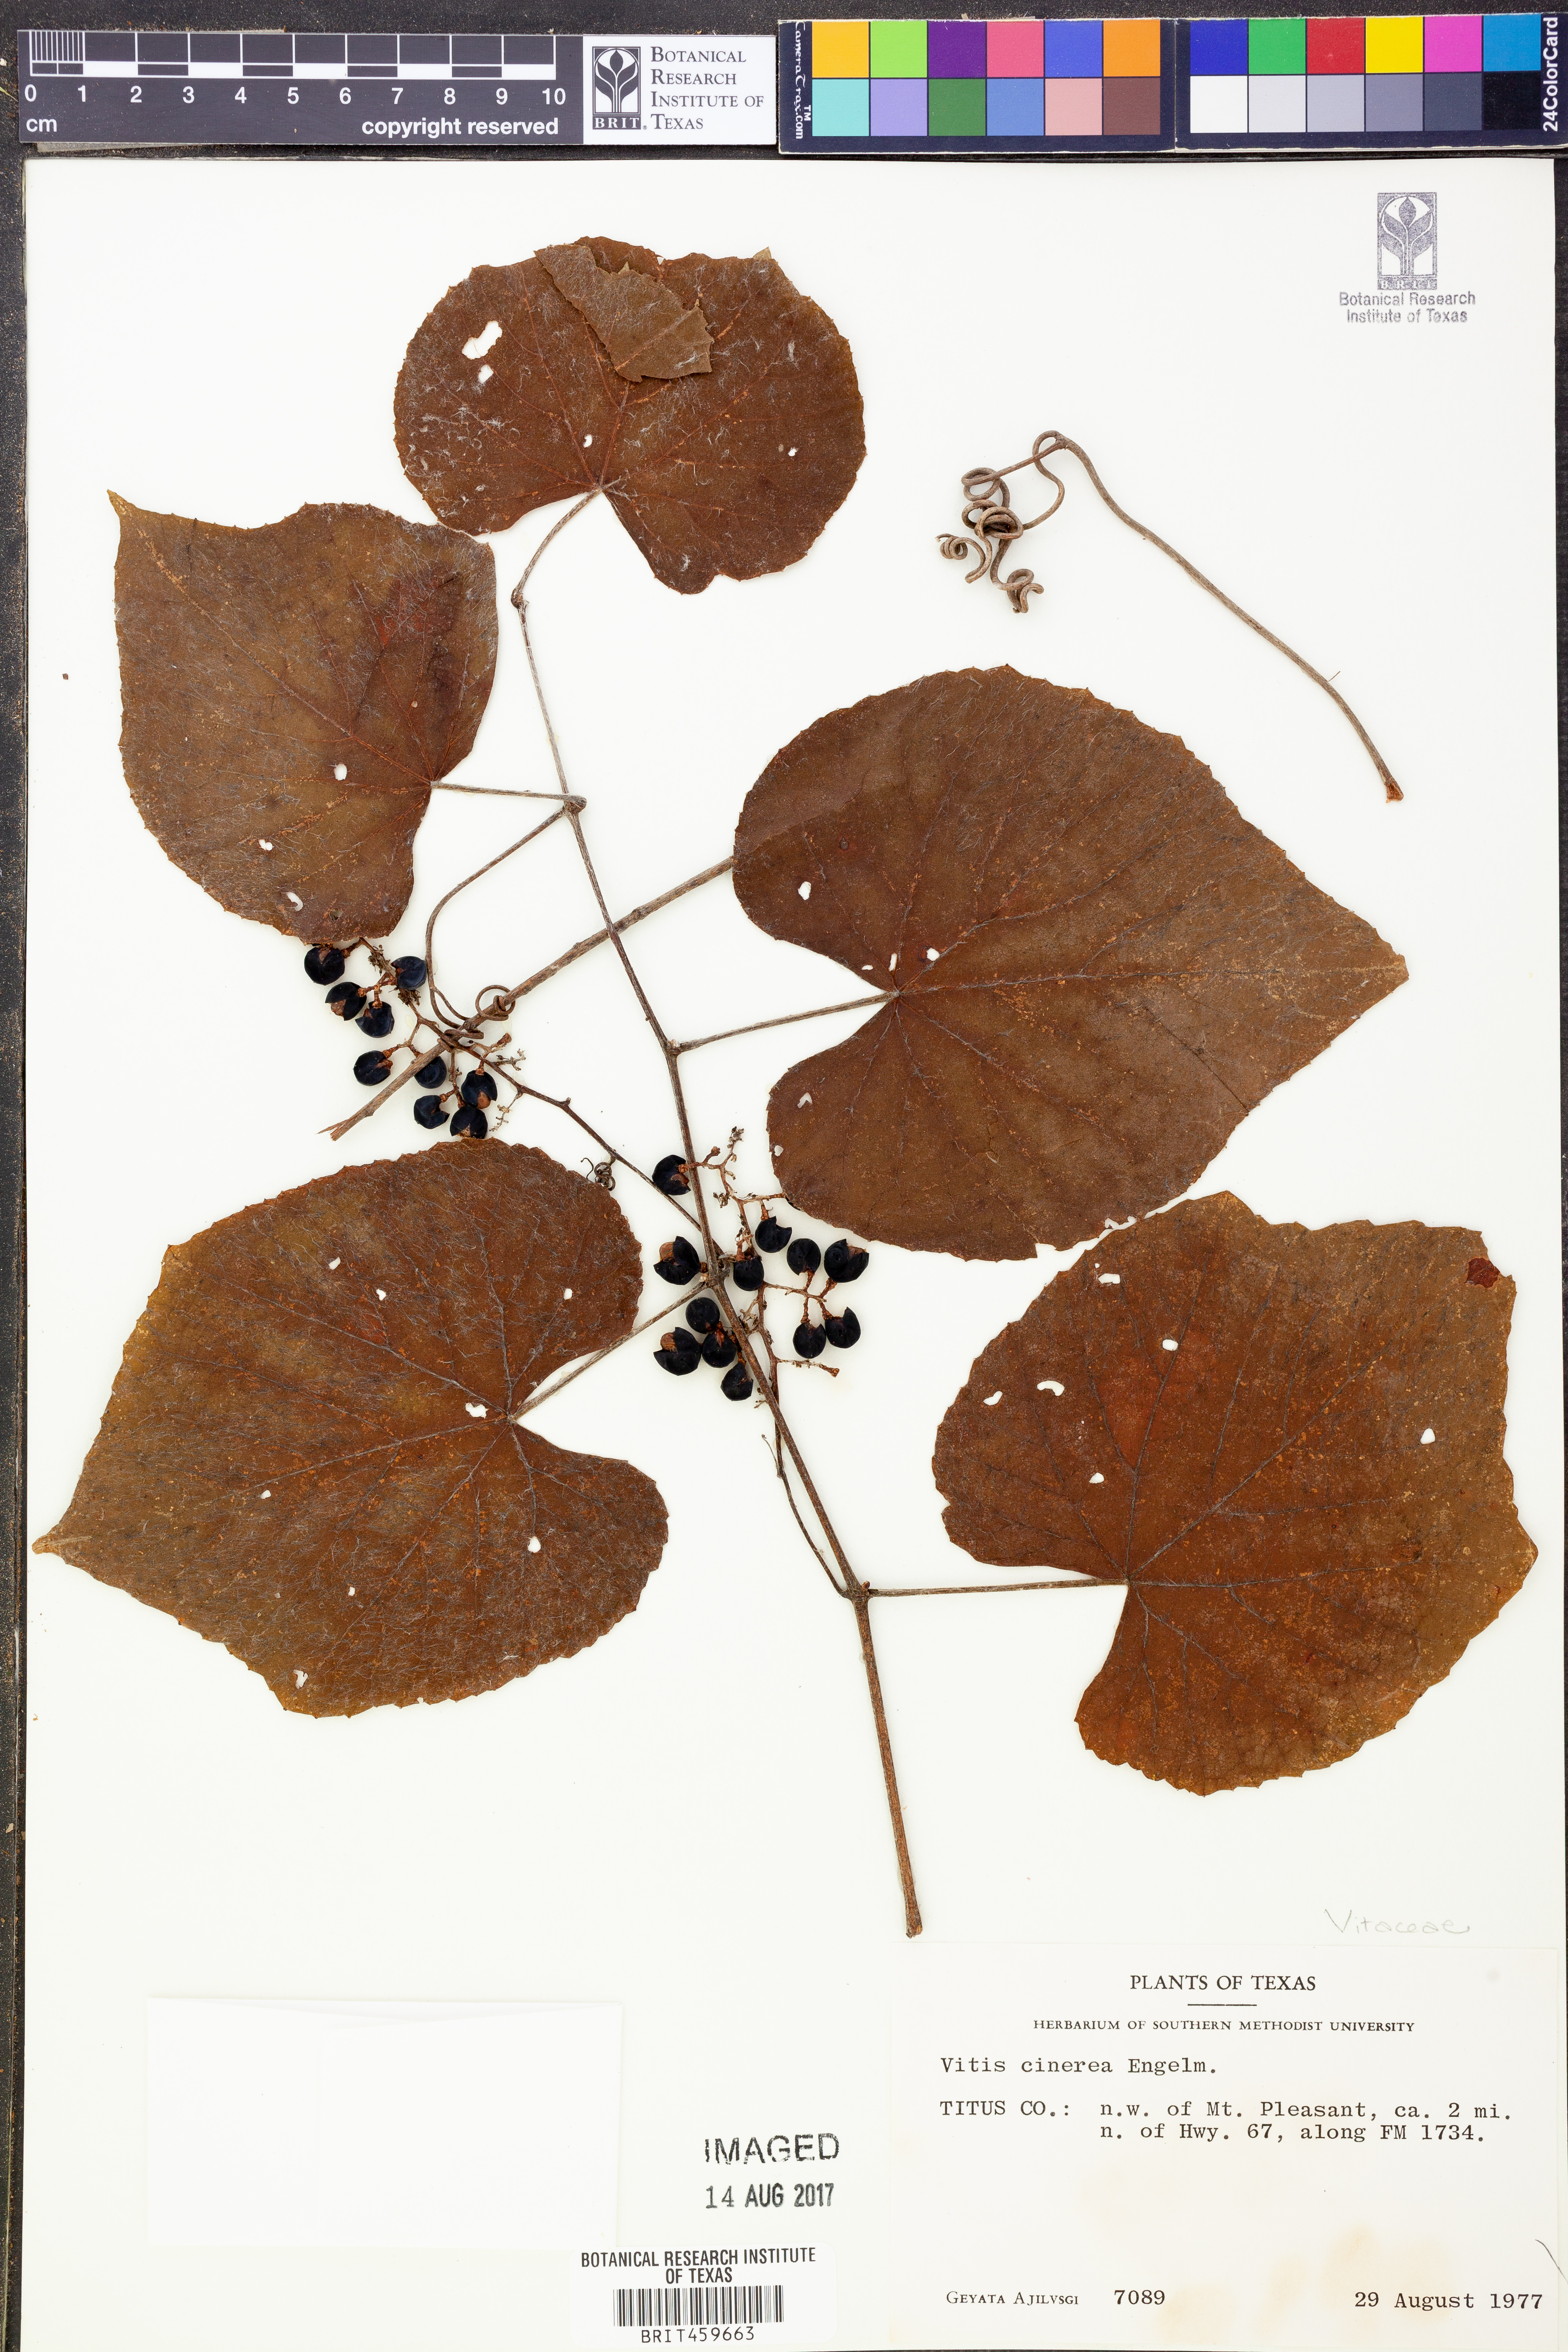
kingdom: Plantae
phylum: Tracheophyta
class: Magnoliopsida
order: Vitales
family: Vitaceae
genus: Vitis
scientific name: Vitis cinerea
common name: Ashy grape
